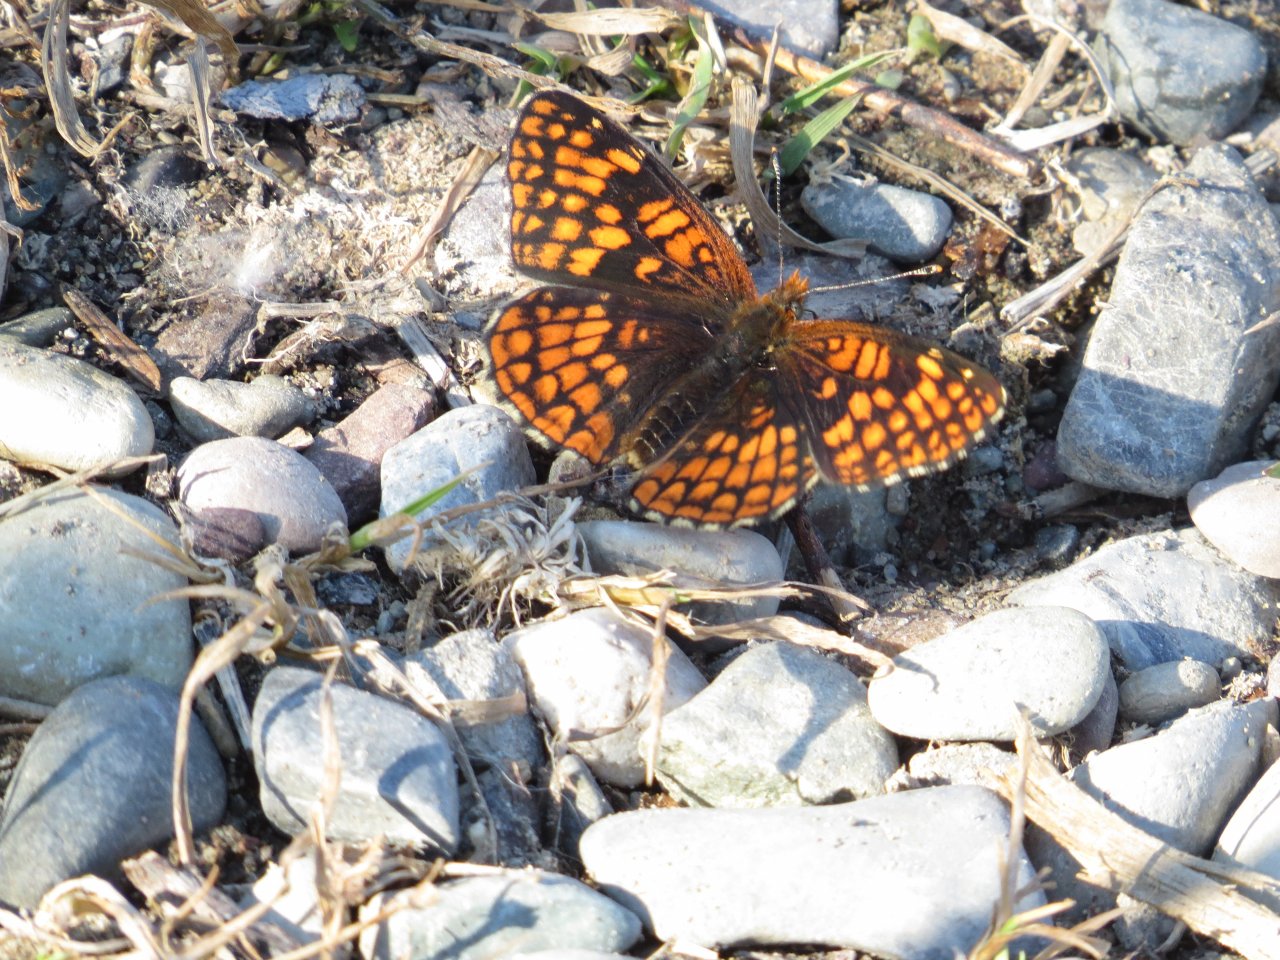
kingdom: Animalia
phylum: Arthropoda
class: Insecta
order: Lepidoptera
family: Nymphalidae
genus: Chlosyne
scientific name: Chlosyne palla
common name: Northern Checkerspot
